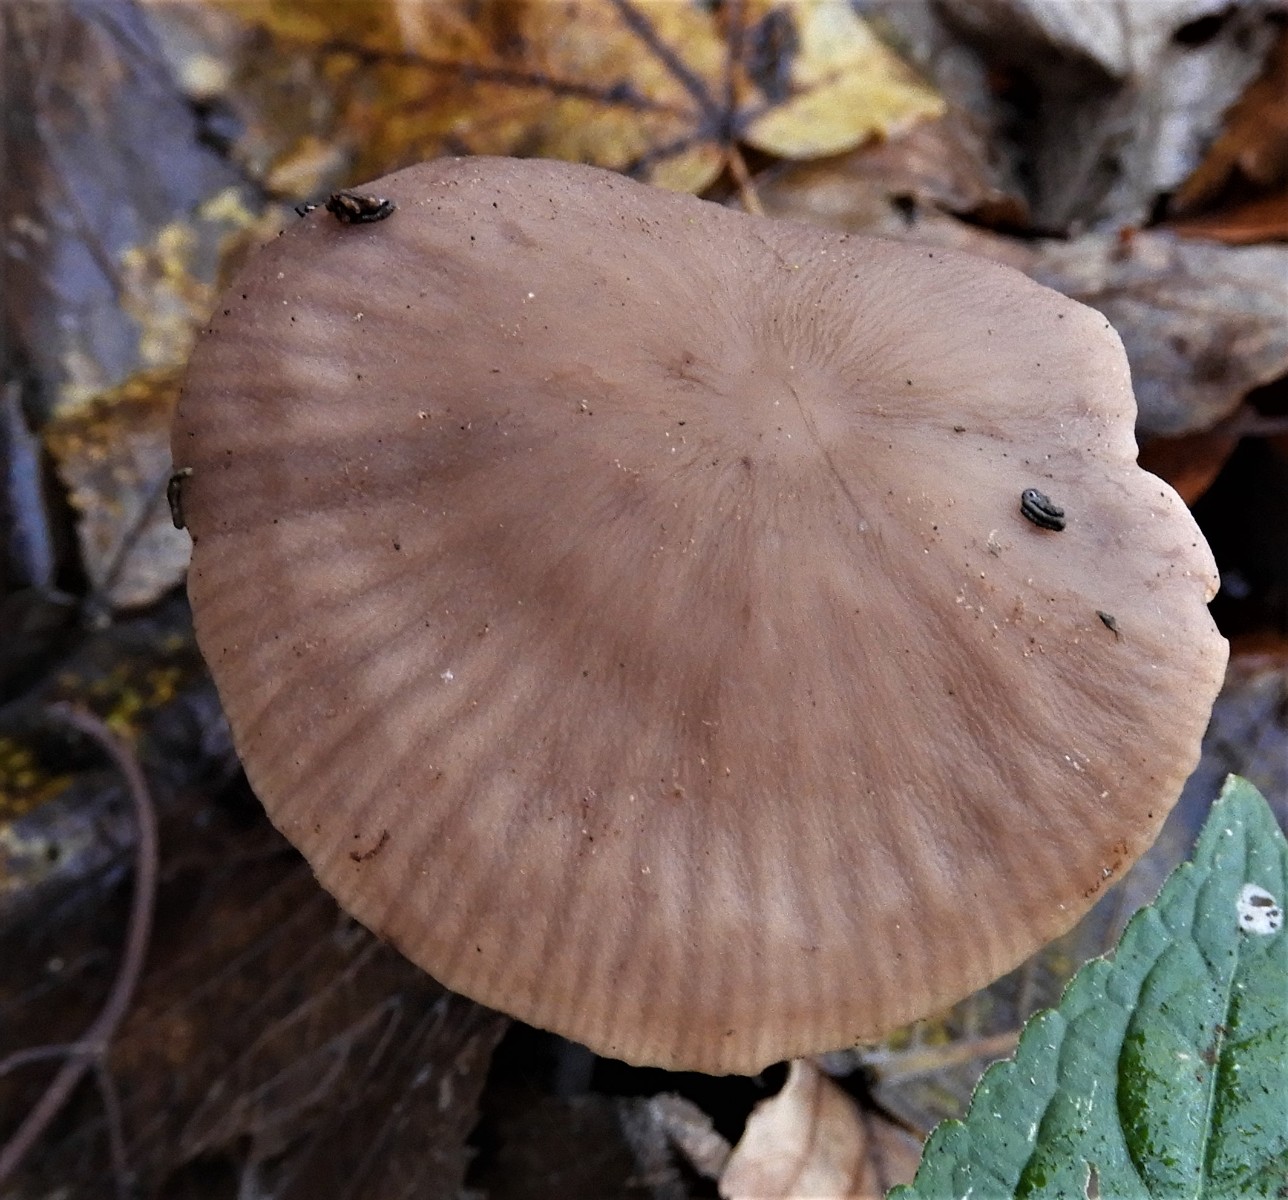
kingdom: Fungi
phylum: Basidiomycota
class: Agaricomycetes
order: Agaricales
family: Omphalotaceae
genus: Mycetinis
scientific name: Mycetinis alliaceus
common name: stor løghat
